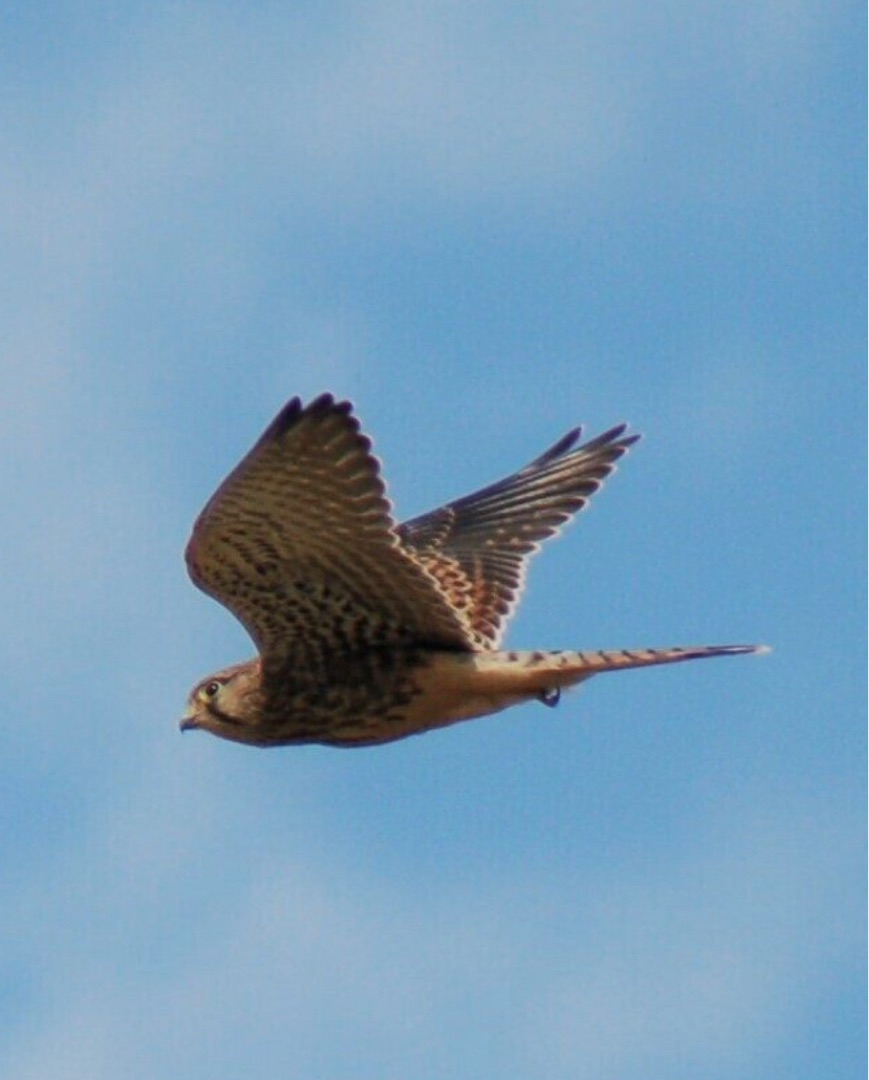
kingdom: Animalia
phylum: Chordata
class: Aves
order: Falconiformes
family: Falconidae
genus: Falco
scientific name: Falco tinnunculus
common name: Tårnfalk
